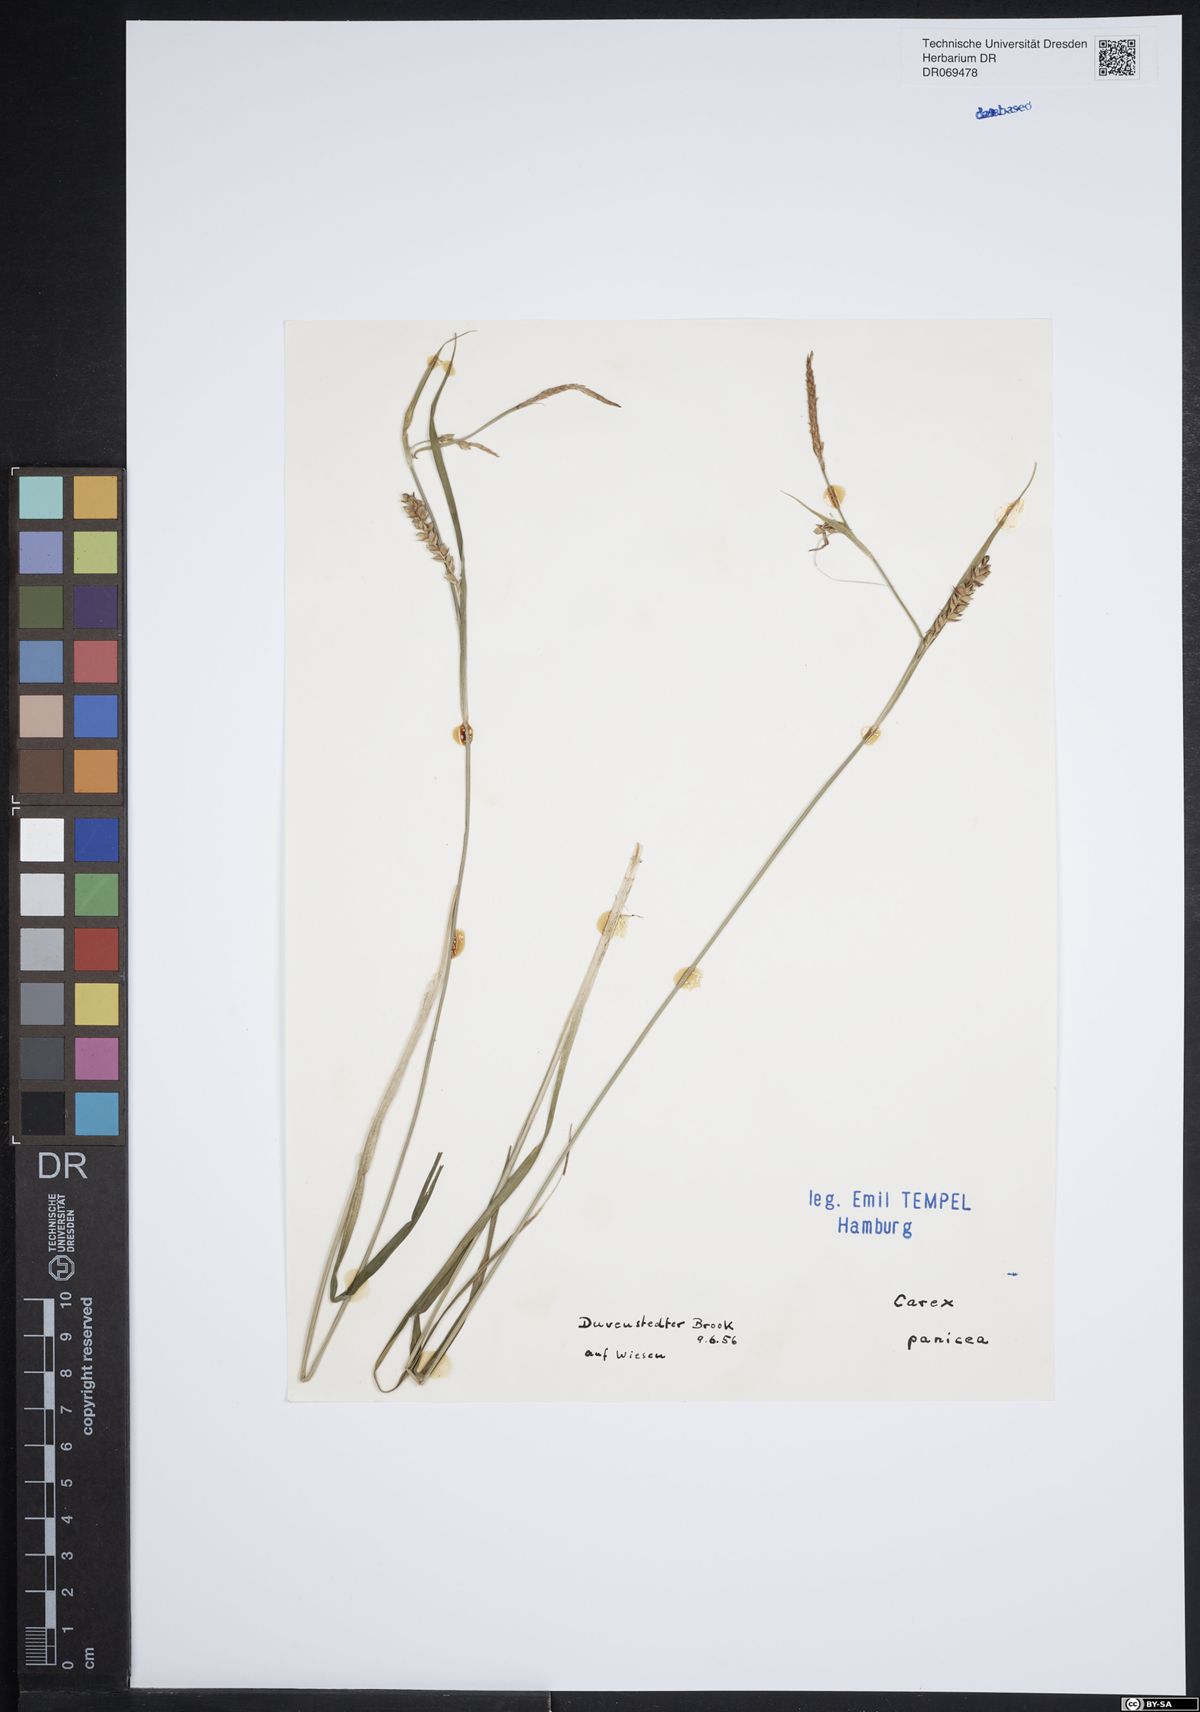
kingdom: Plantae
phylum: Tracheophyta
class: Liliopsida
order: Poales
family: Cyperaceae
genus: Carex
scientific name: Carex panicea
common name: Carnation sedge
